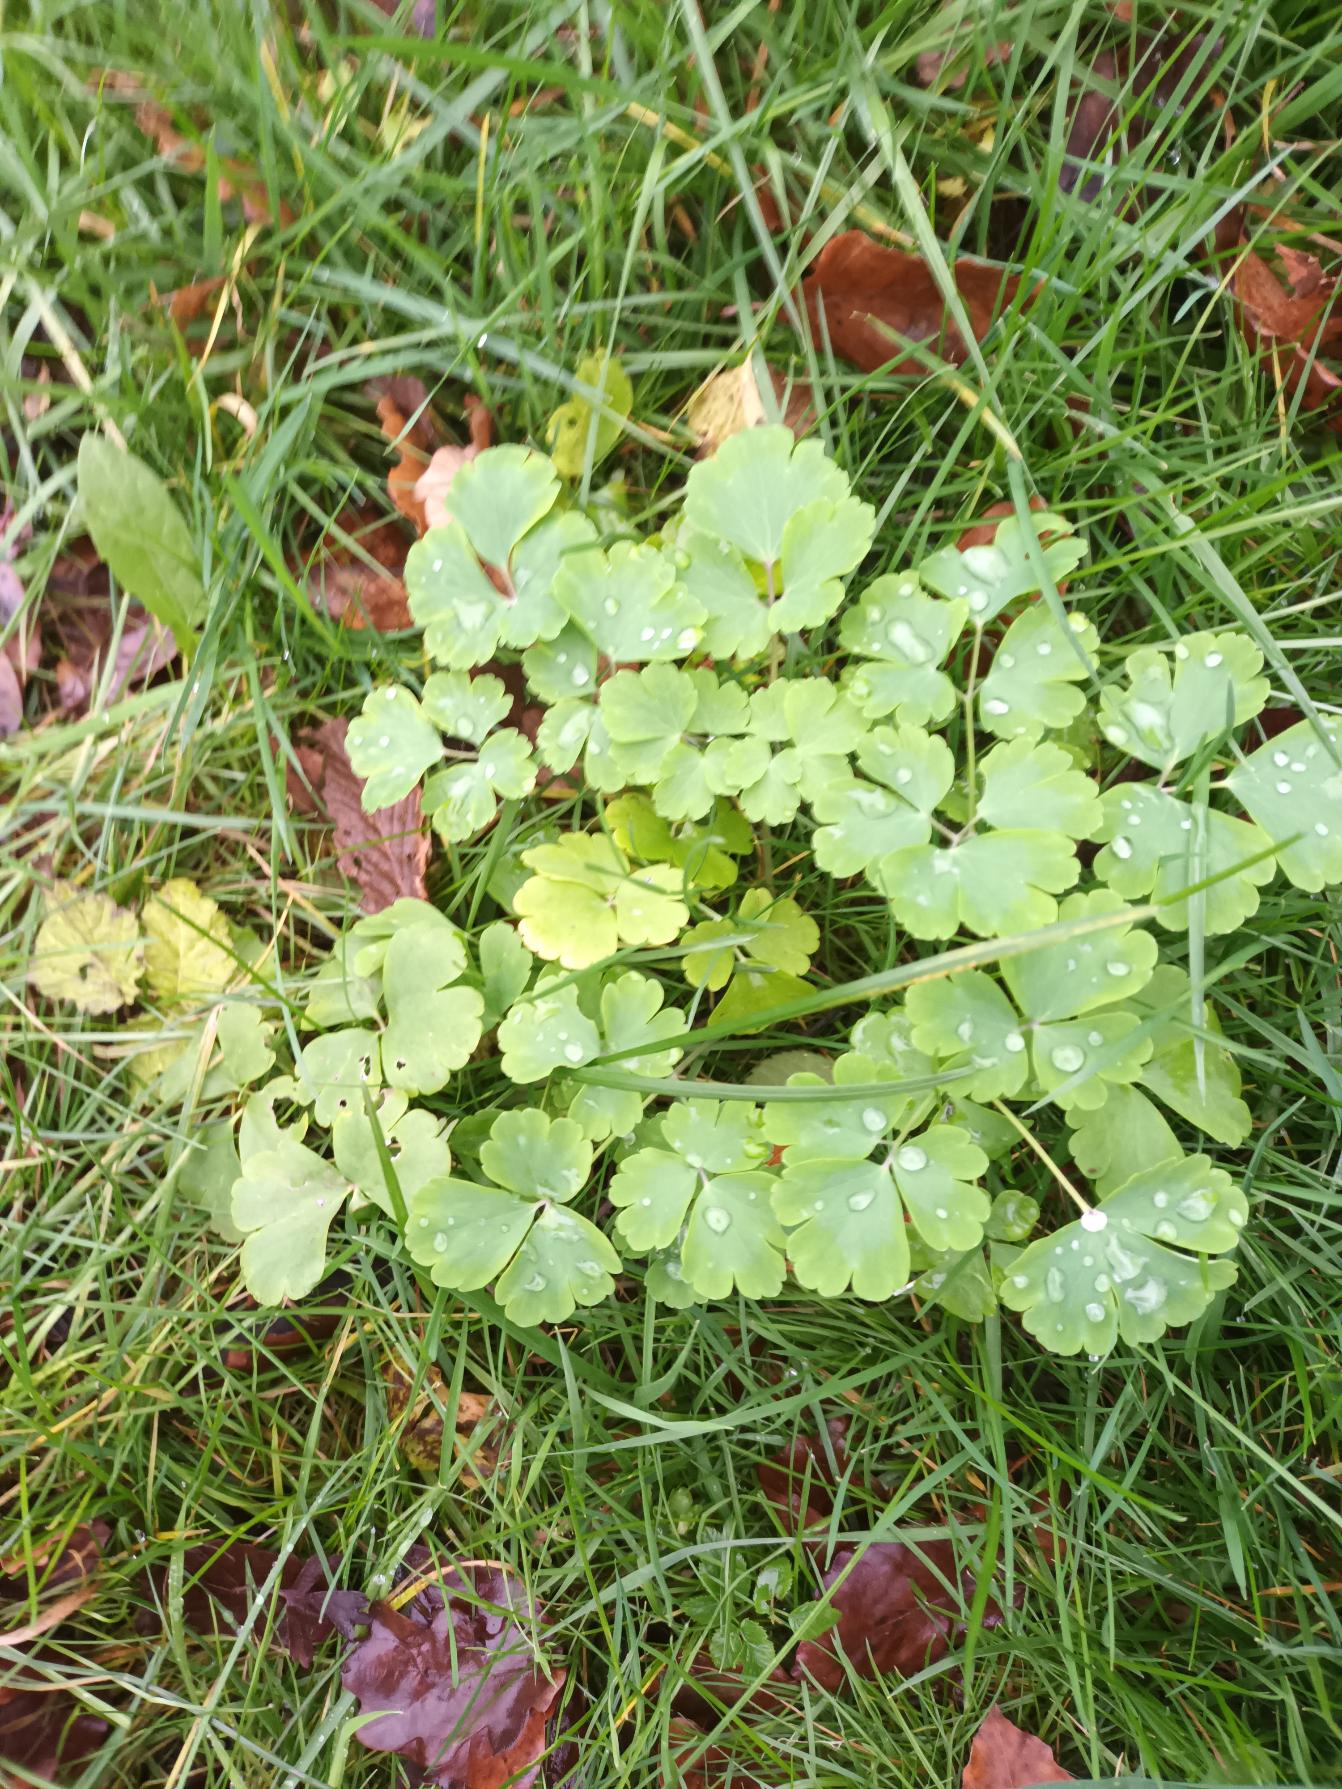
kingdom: Plantae
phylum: Tracheophyta
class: Magnoliopsida
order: Ranunculales
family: Ranunculaceae
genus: Aquilegia
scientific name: Aquilegia vulgaris
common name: Akeleje
